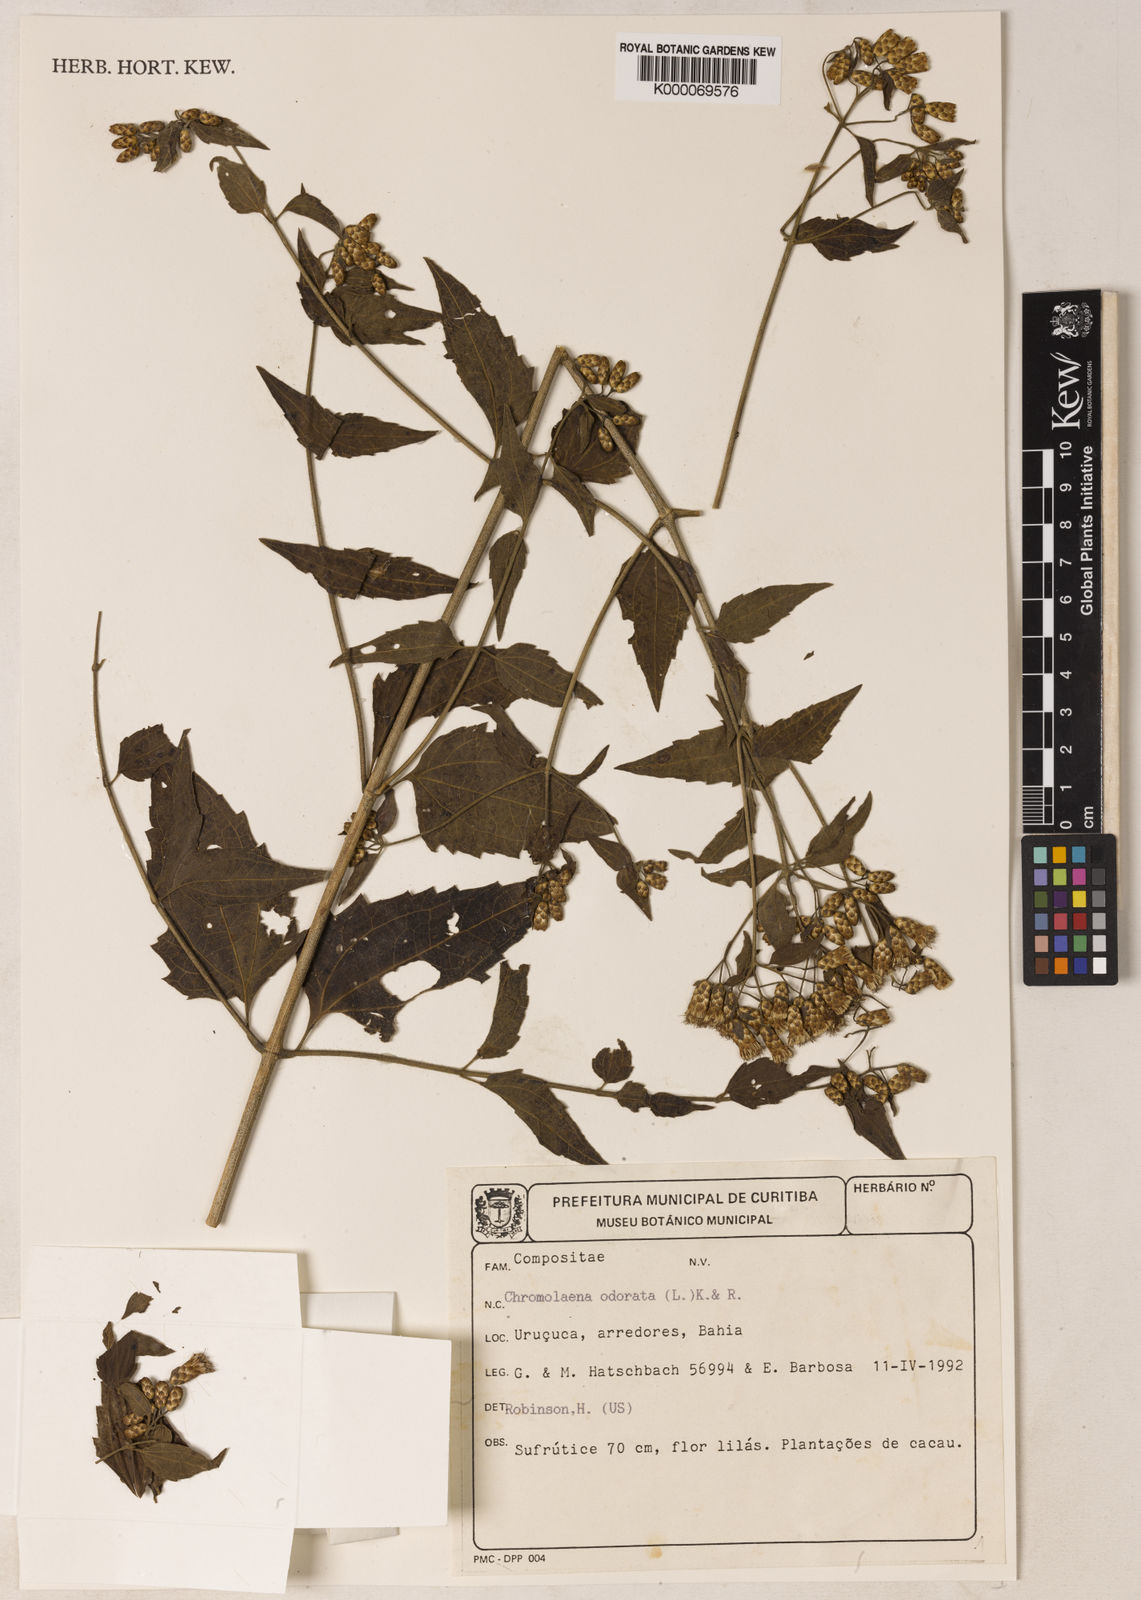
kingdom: Plantae
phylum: Tracheophyta
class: Magnoliopsida
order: Asterales
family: Asteraceae
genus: Chromolaena
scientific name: Chromolaena odorata
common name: Siamweed
